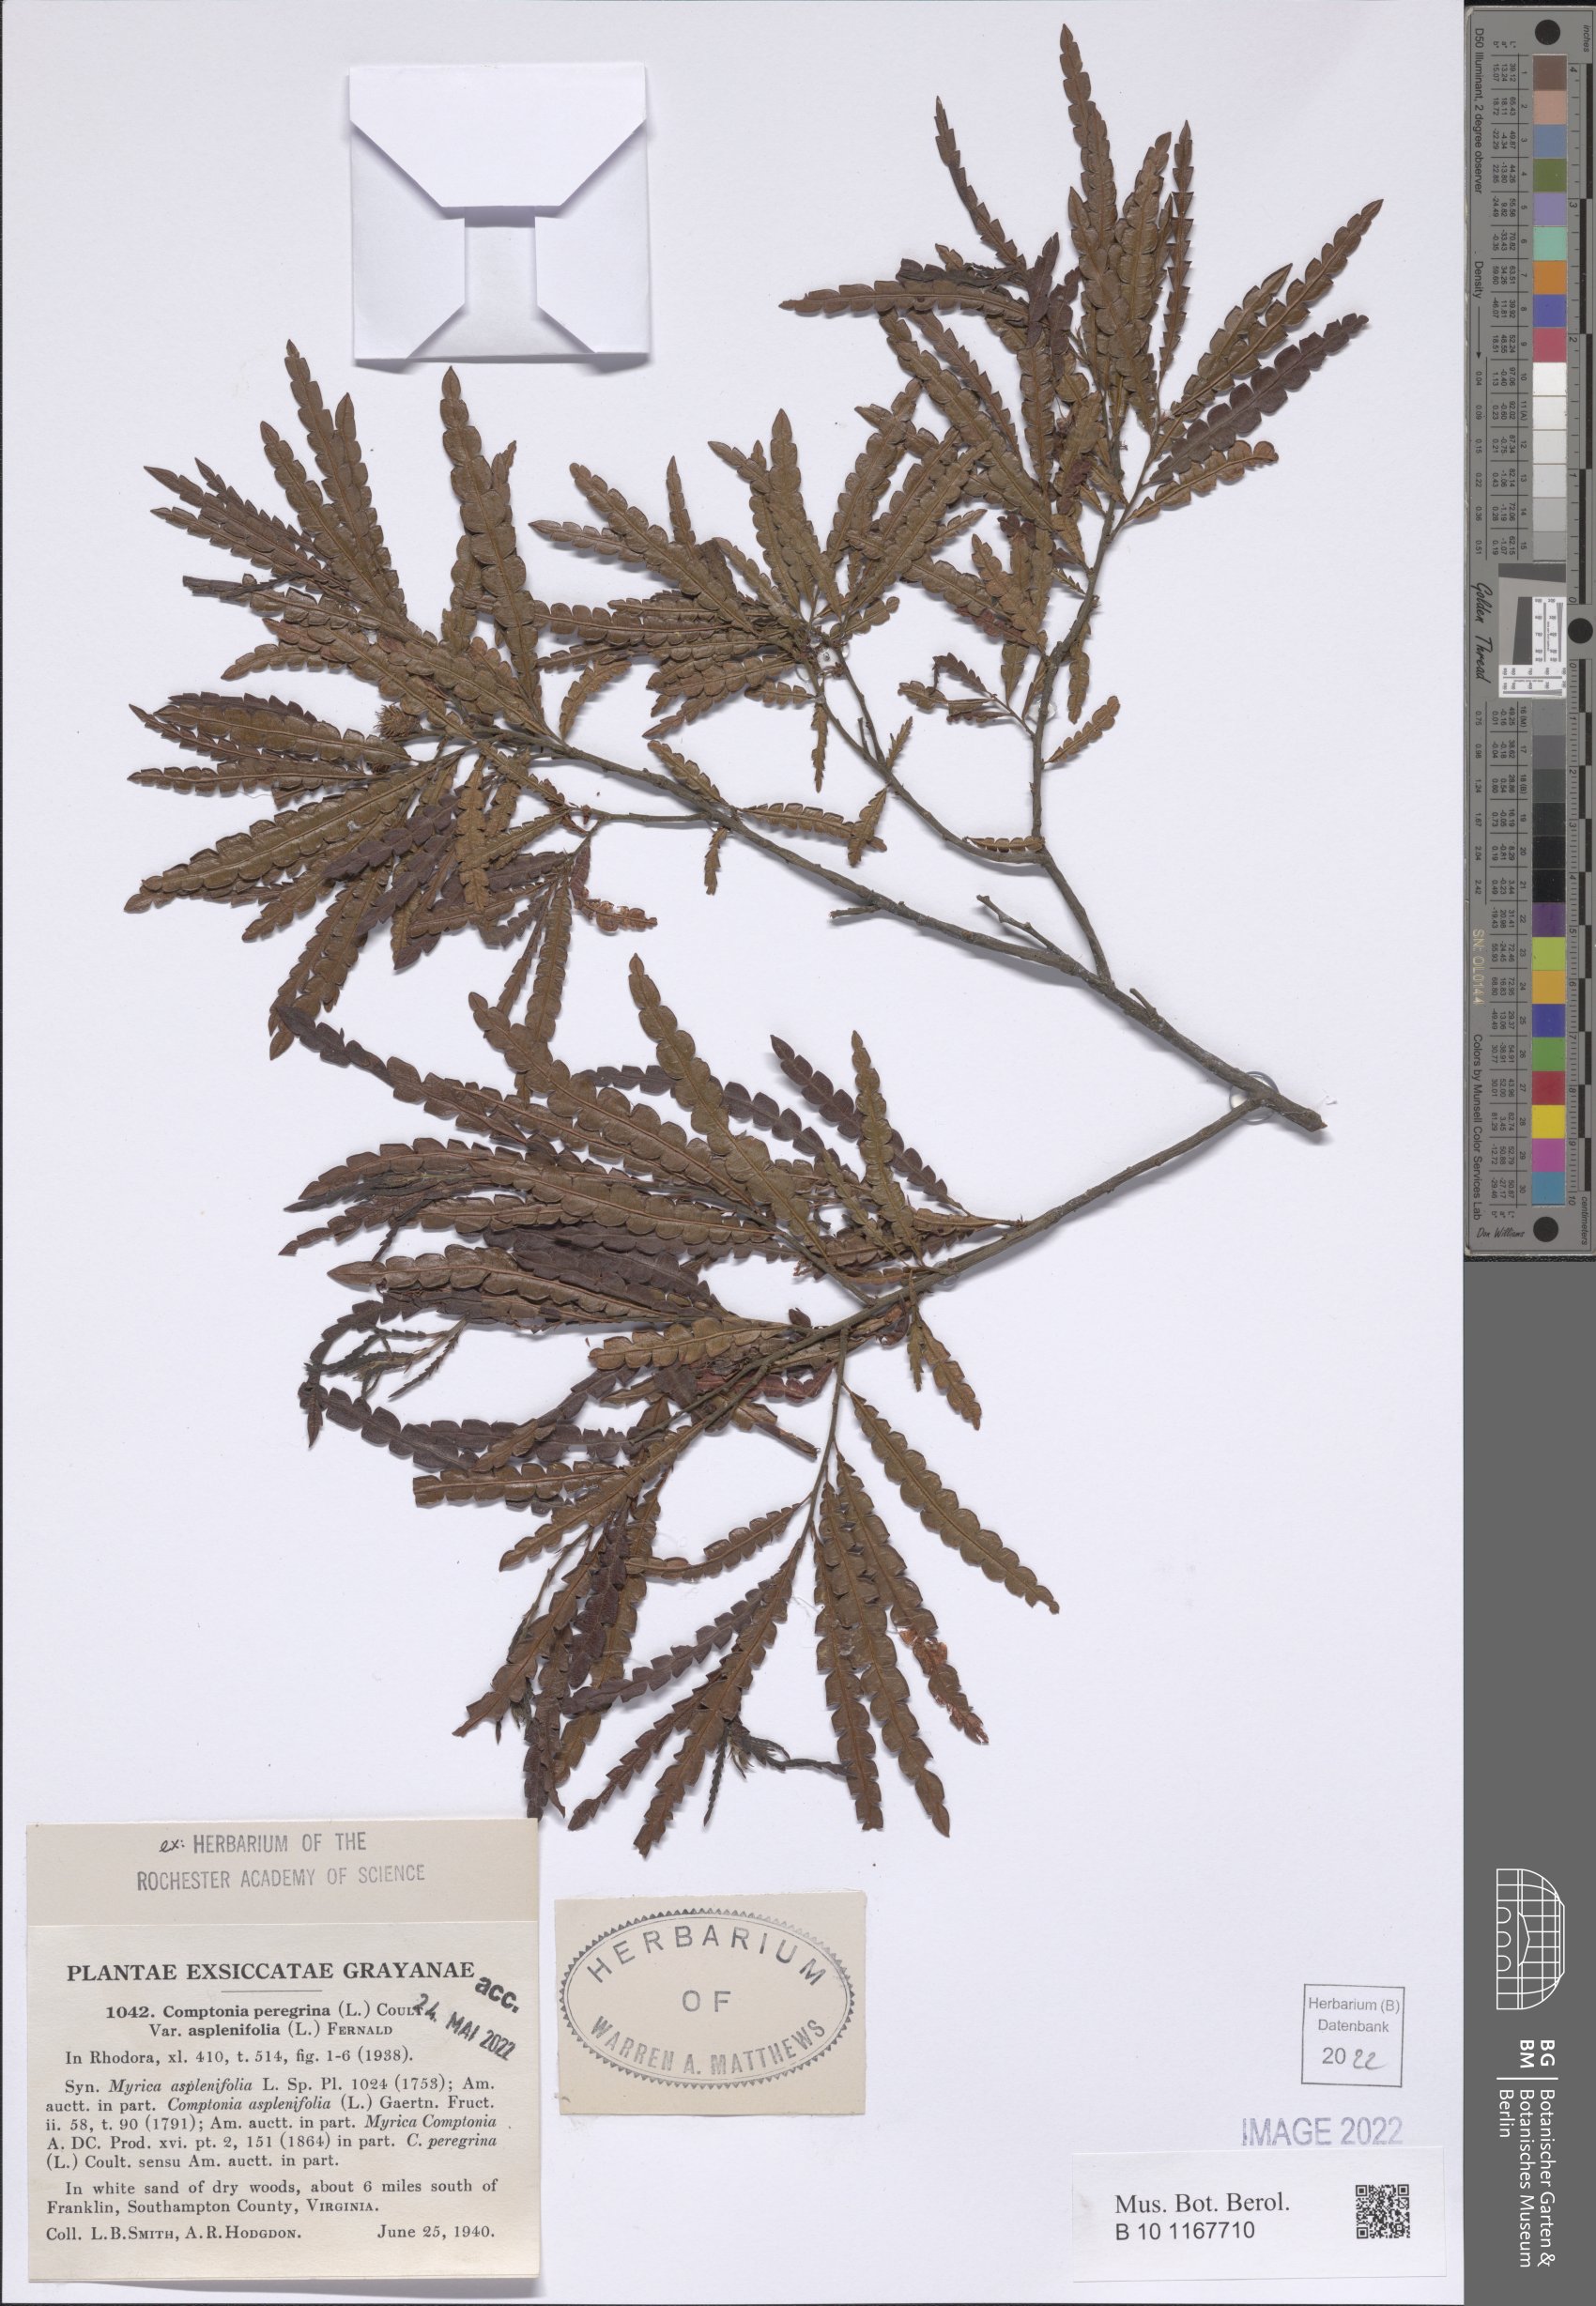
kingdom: Plantae
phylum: Tracheophyta
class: Magnoliopsida
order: Fagales
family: Myricaceae
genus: Comptonia
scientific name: Comptonia peregrina
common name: Sweet-fern
